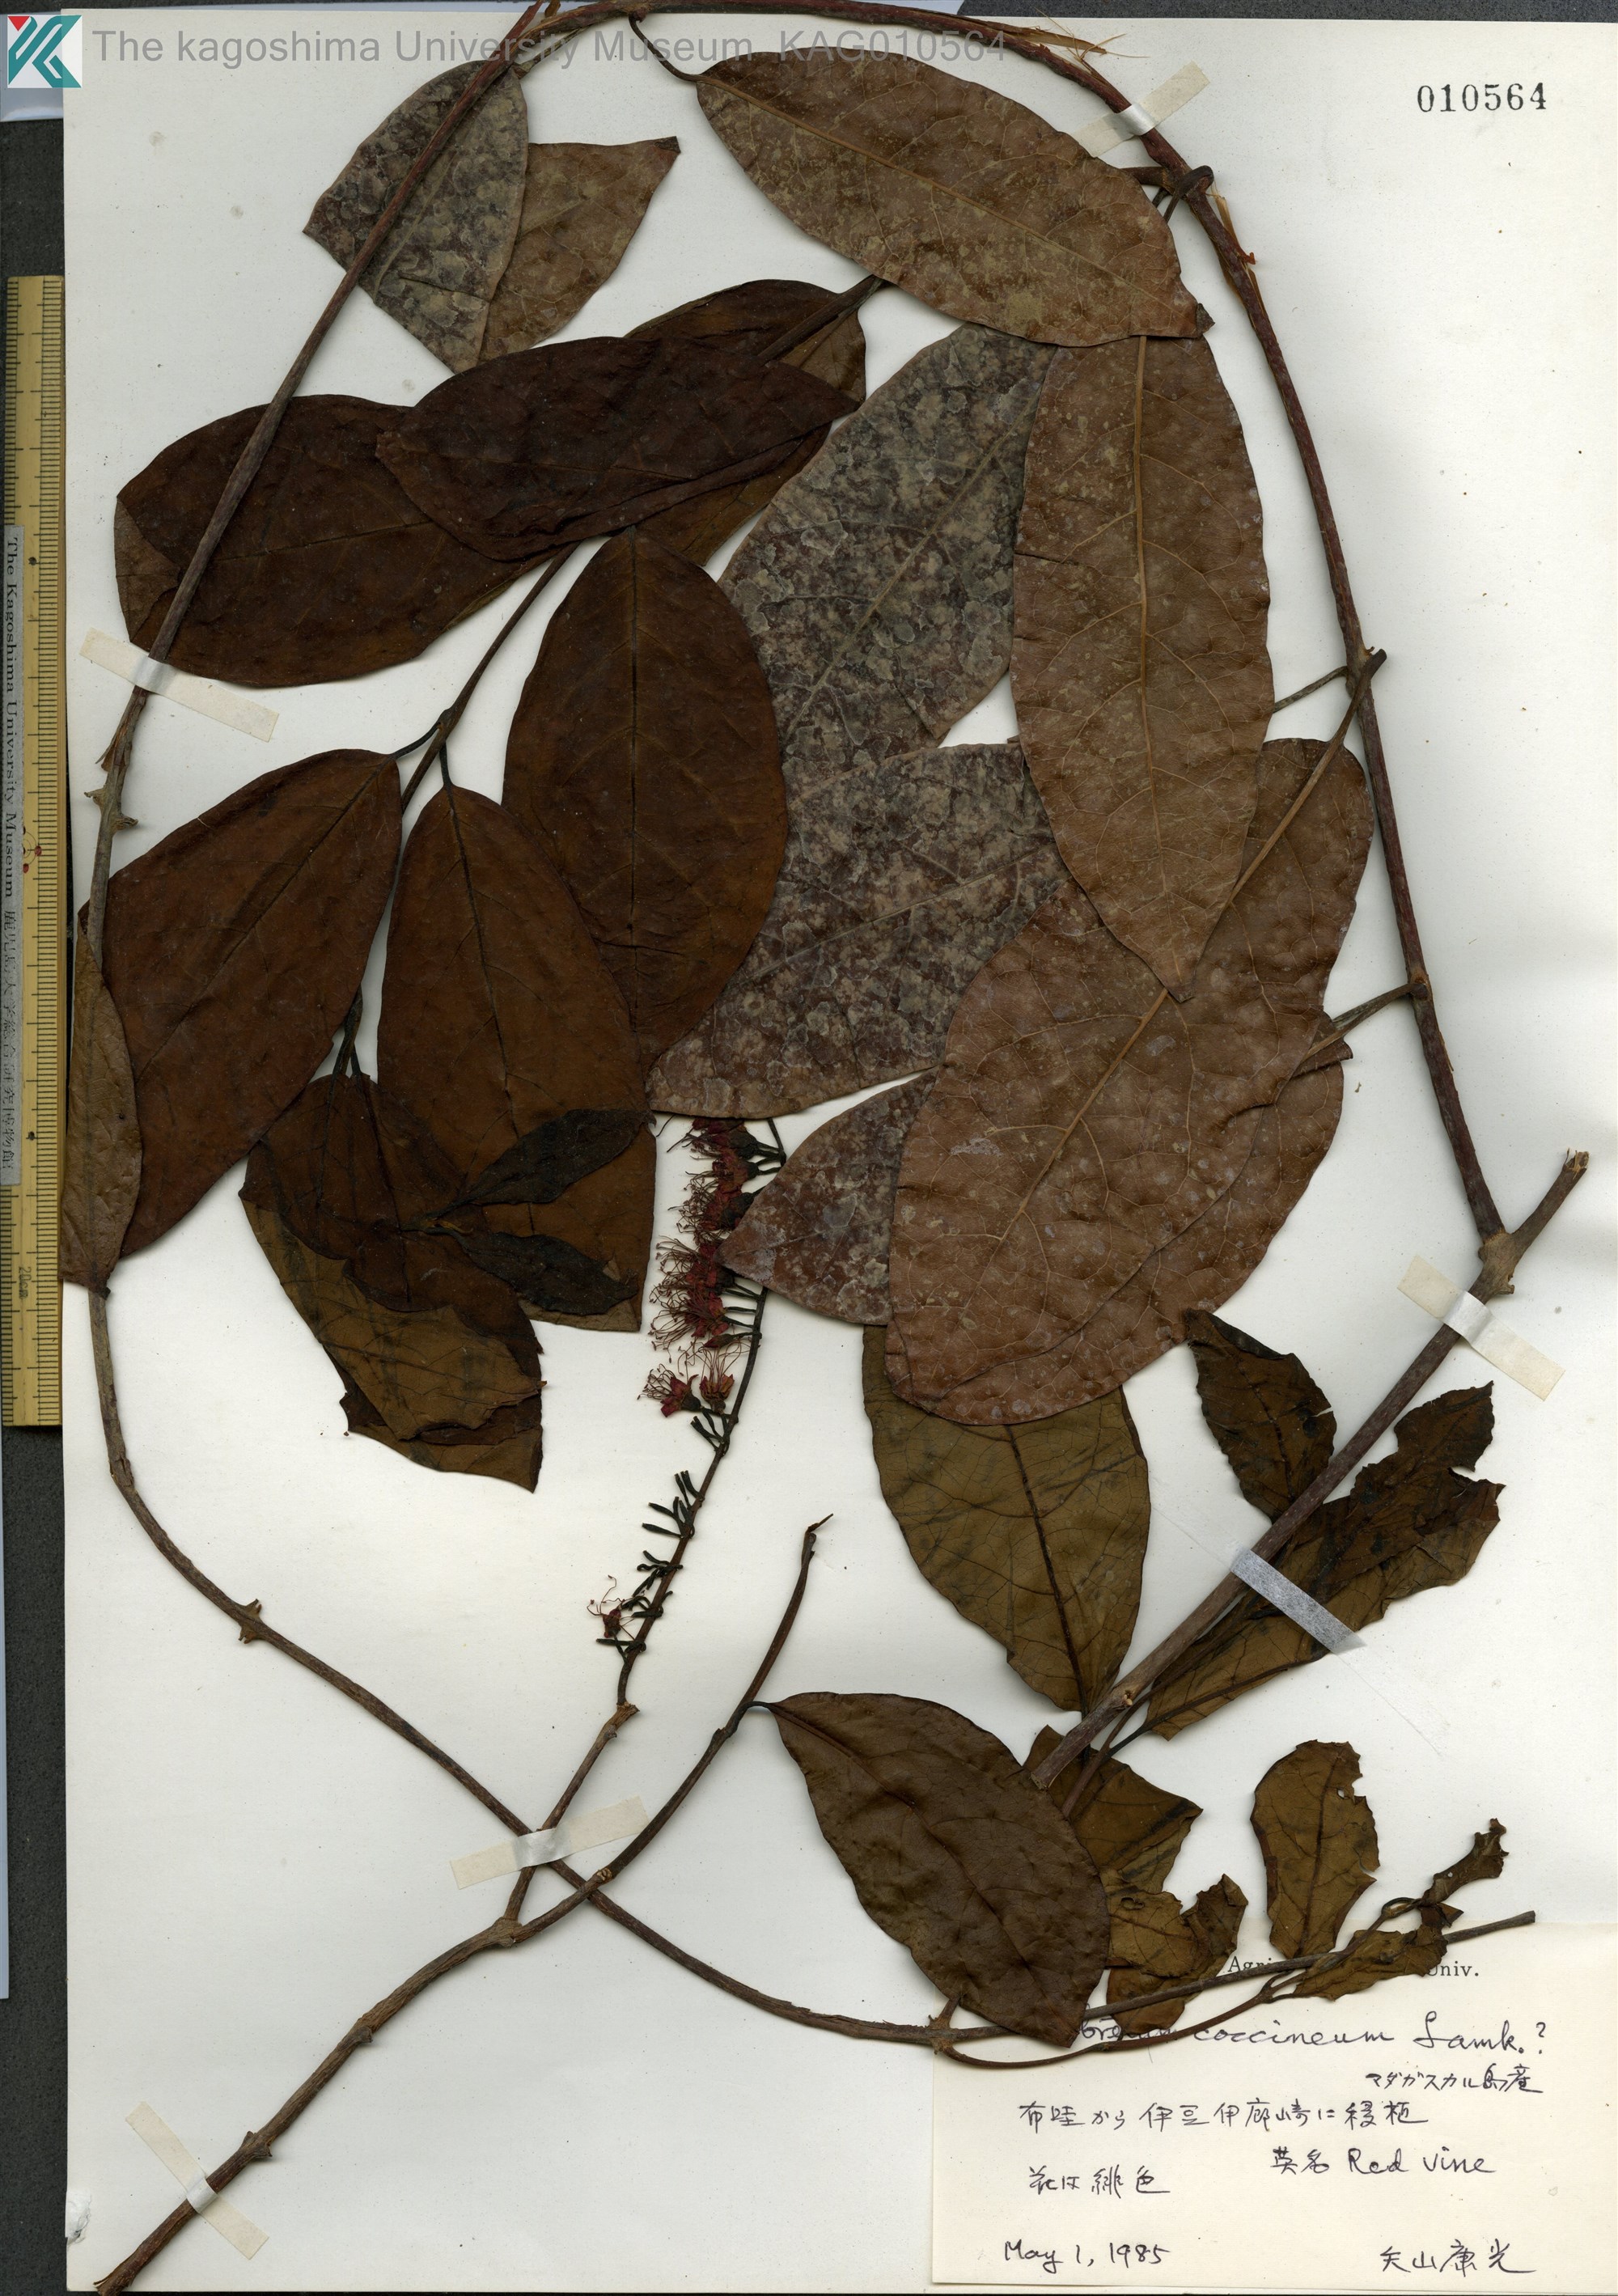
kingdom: Plantae
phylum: Tracheophyta
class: Magnoliopsida
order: Myrtales
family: Combretaceae
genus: Combretum
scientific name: Combretum
